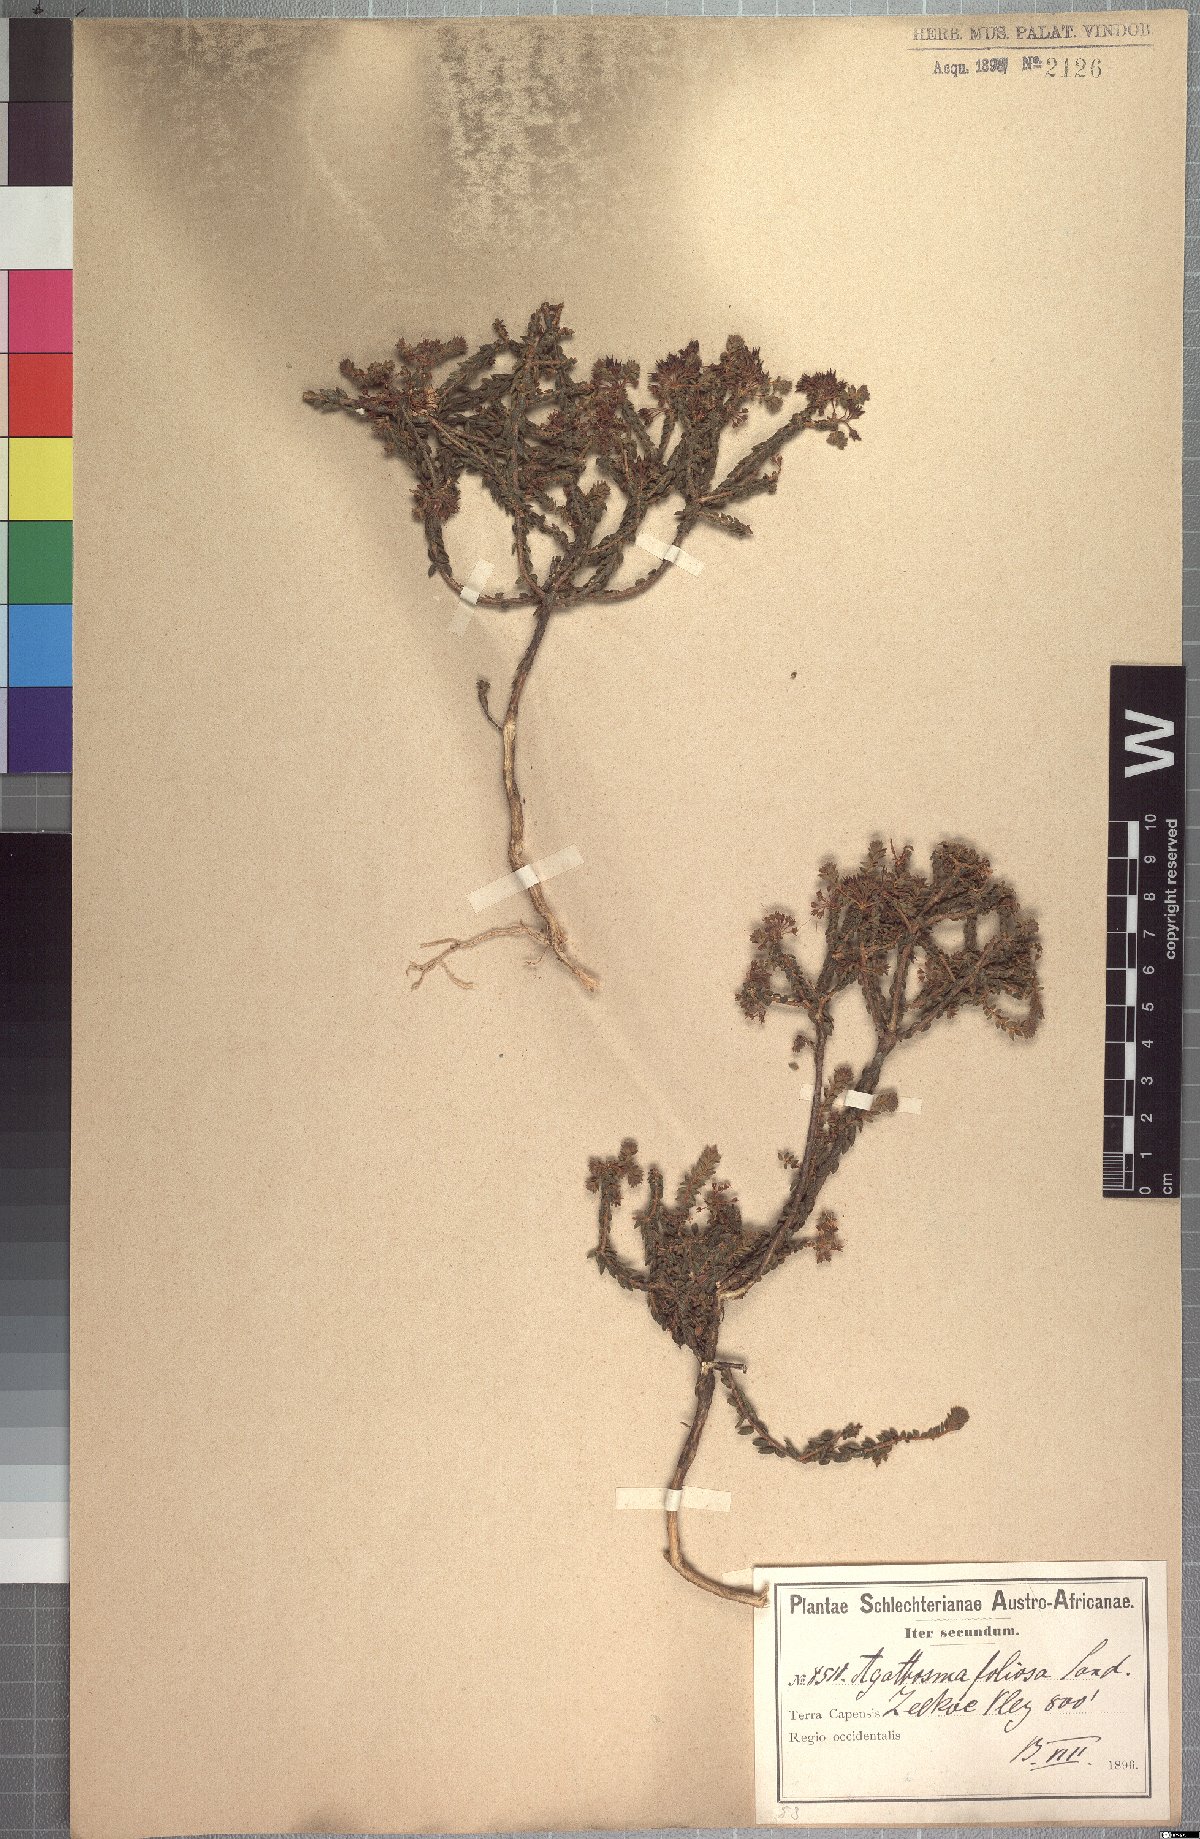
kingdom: Plantae
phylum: Tracheophyta
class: Magnoliopsida
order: Sapindales
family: Rutaceae
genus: Agathosma
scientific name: Agathosma marifolia
